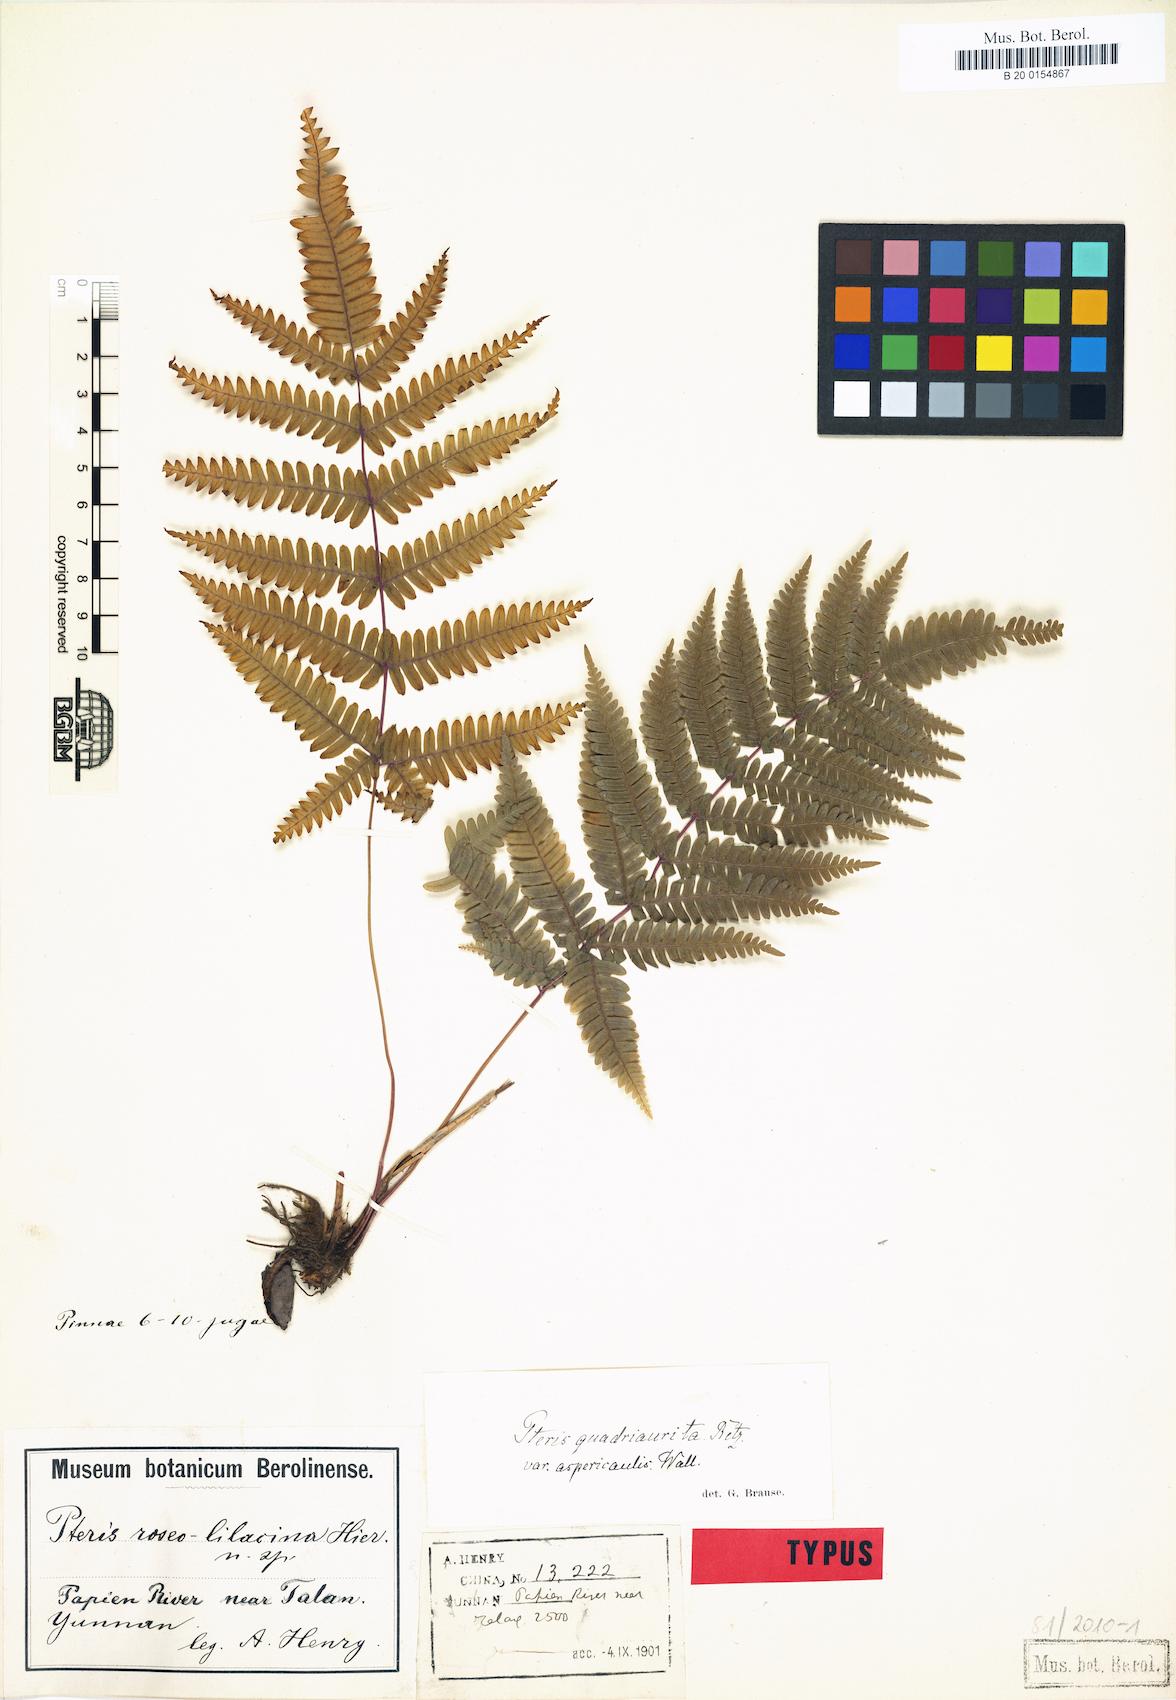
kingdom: Plantae
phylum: Tracheophyta
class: Polypodiopsida
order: Polypodiales
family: Pteridaceae
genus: Pteris
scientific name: Pteris roseolilacina
